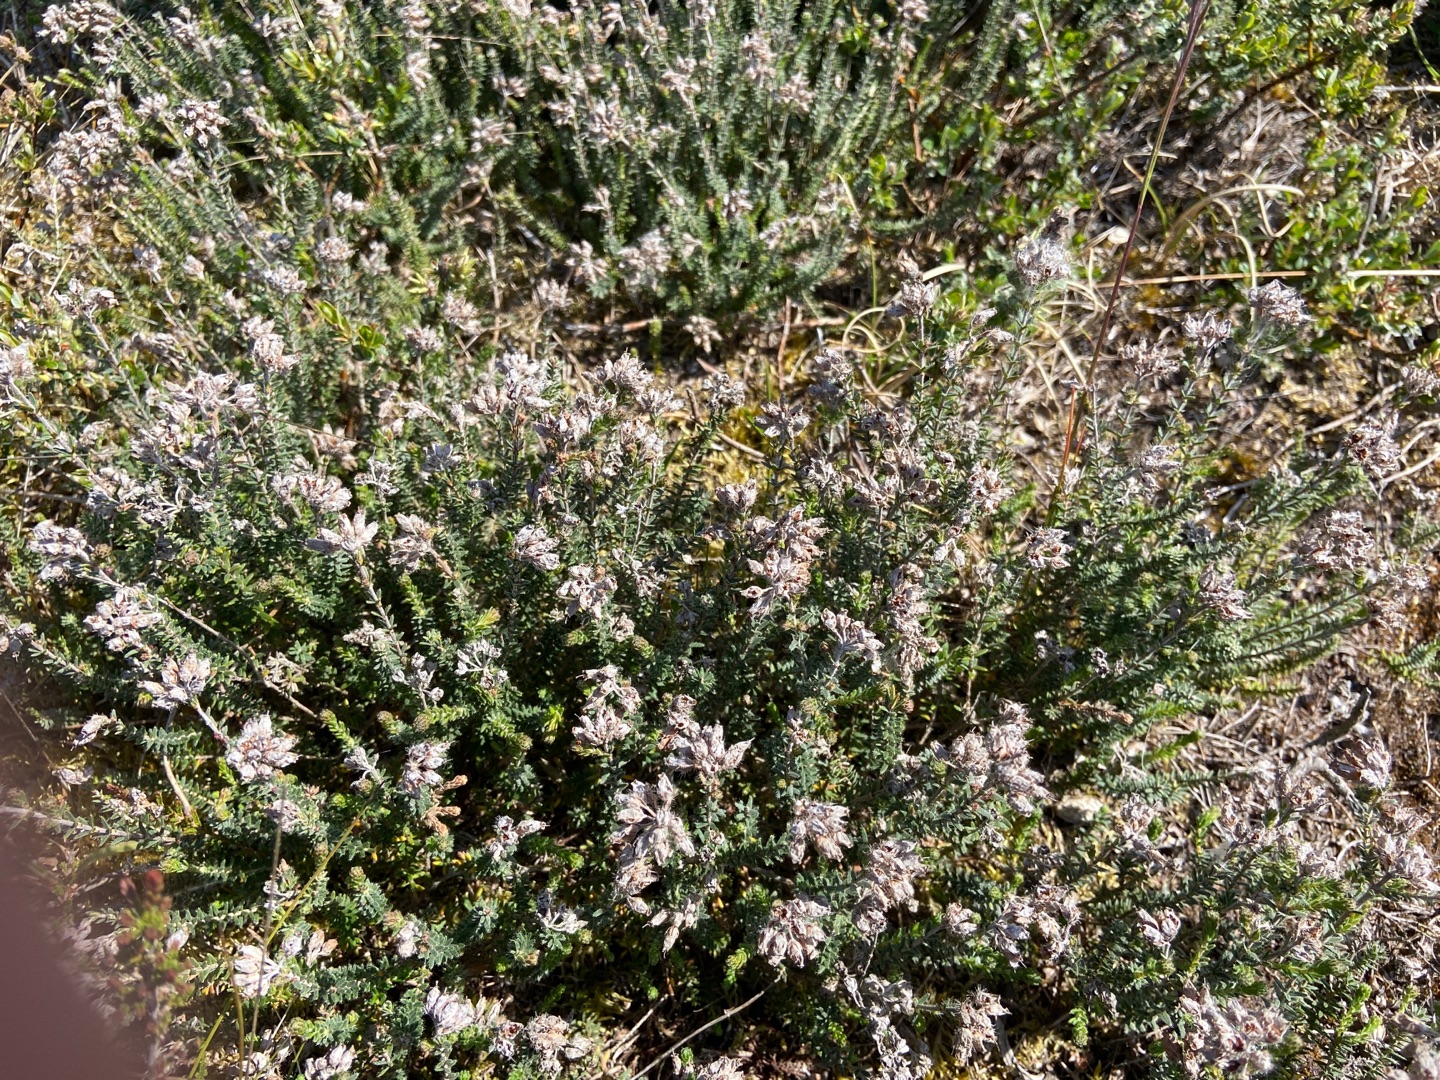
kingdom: Plantae
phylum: Tracheophyta
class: Magnoliopsida
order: Ericales
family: Ericaceae
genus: Erica
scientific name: Erica tetralix
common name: Klokkelyng
